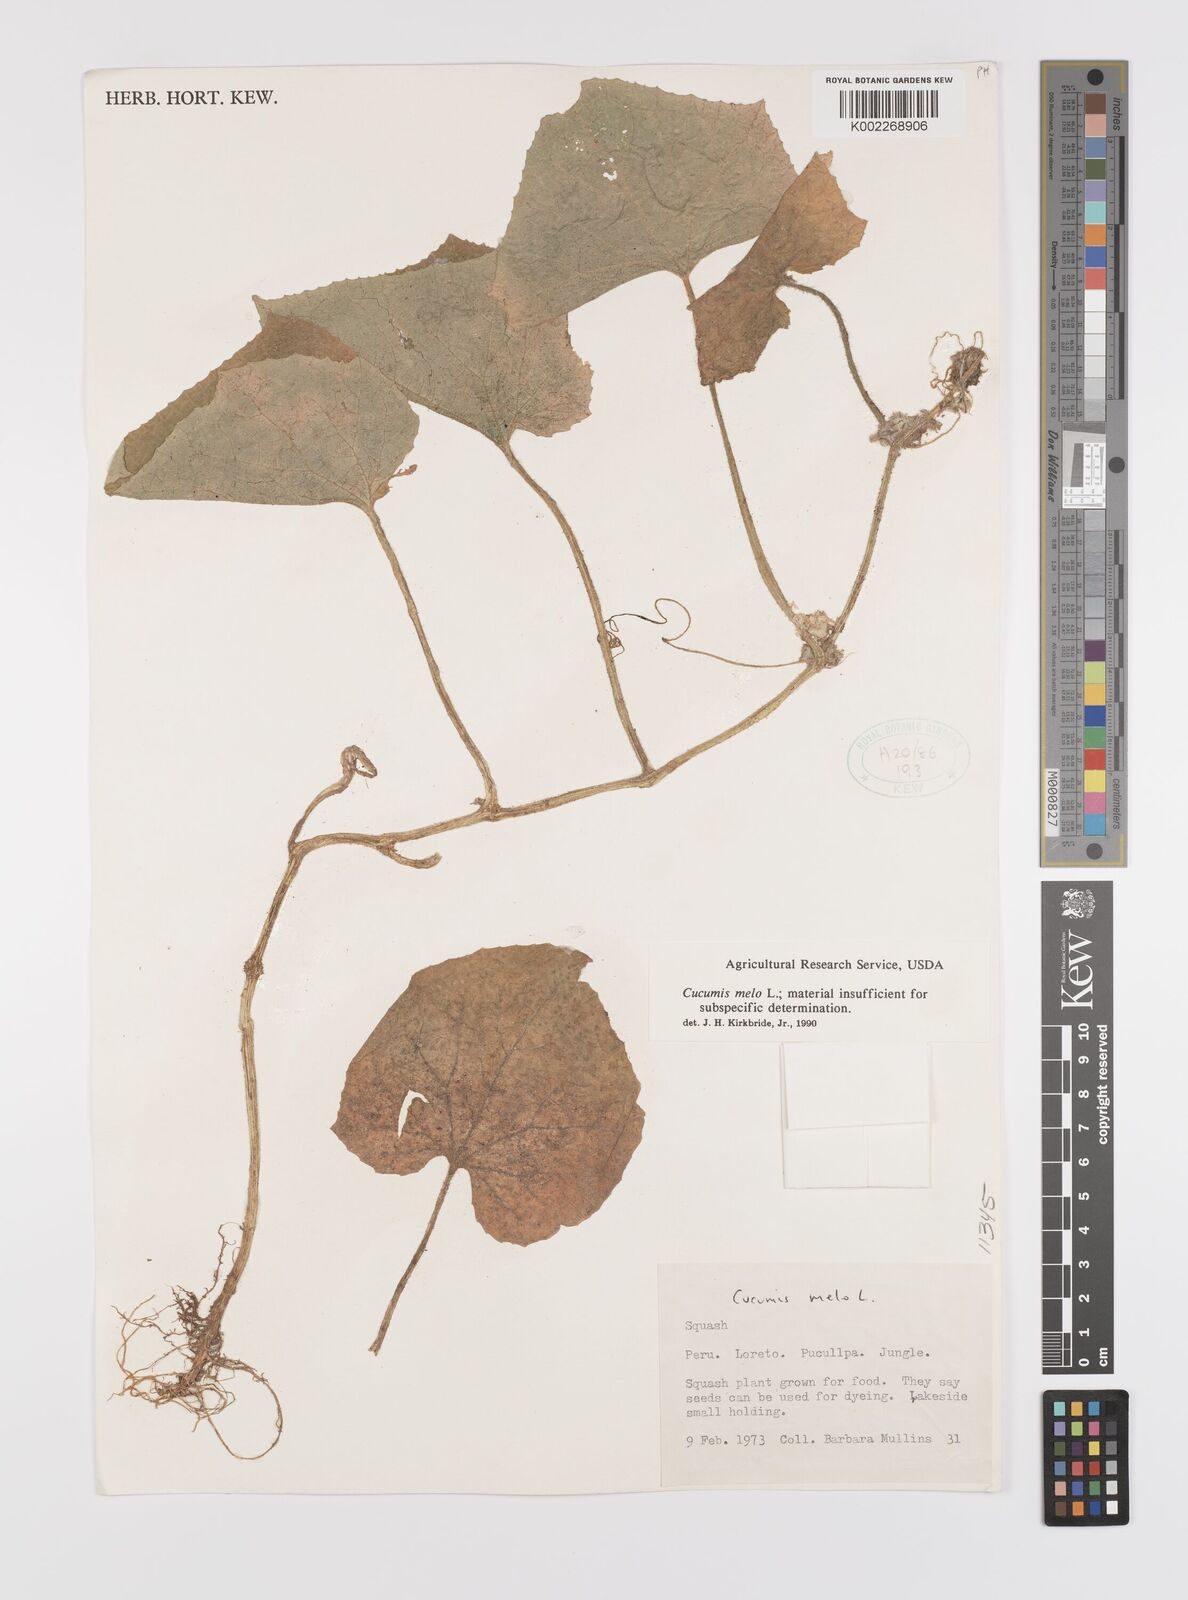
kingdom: Plantae
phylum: Tracheophyta
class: Magnoliopsida
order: Cucurbitales
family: Cucurbitaceae
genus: Cucumis
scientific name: Cucumis melo
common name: Melon
